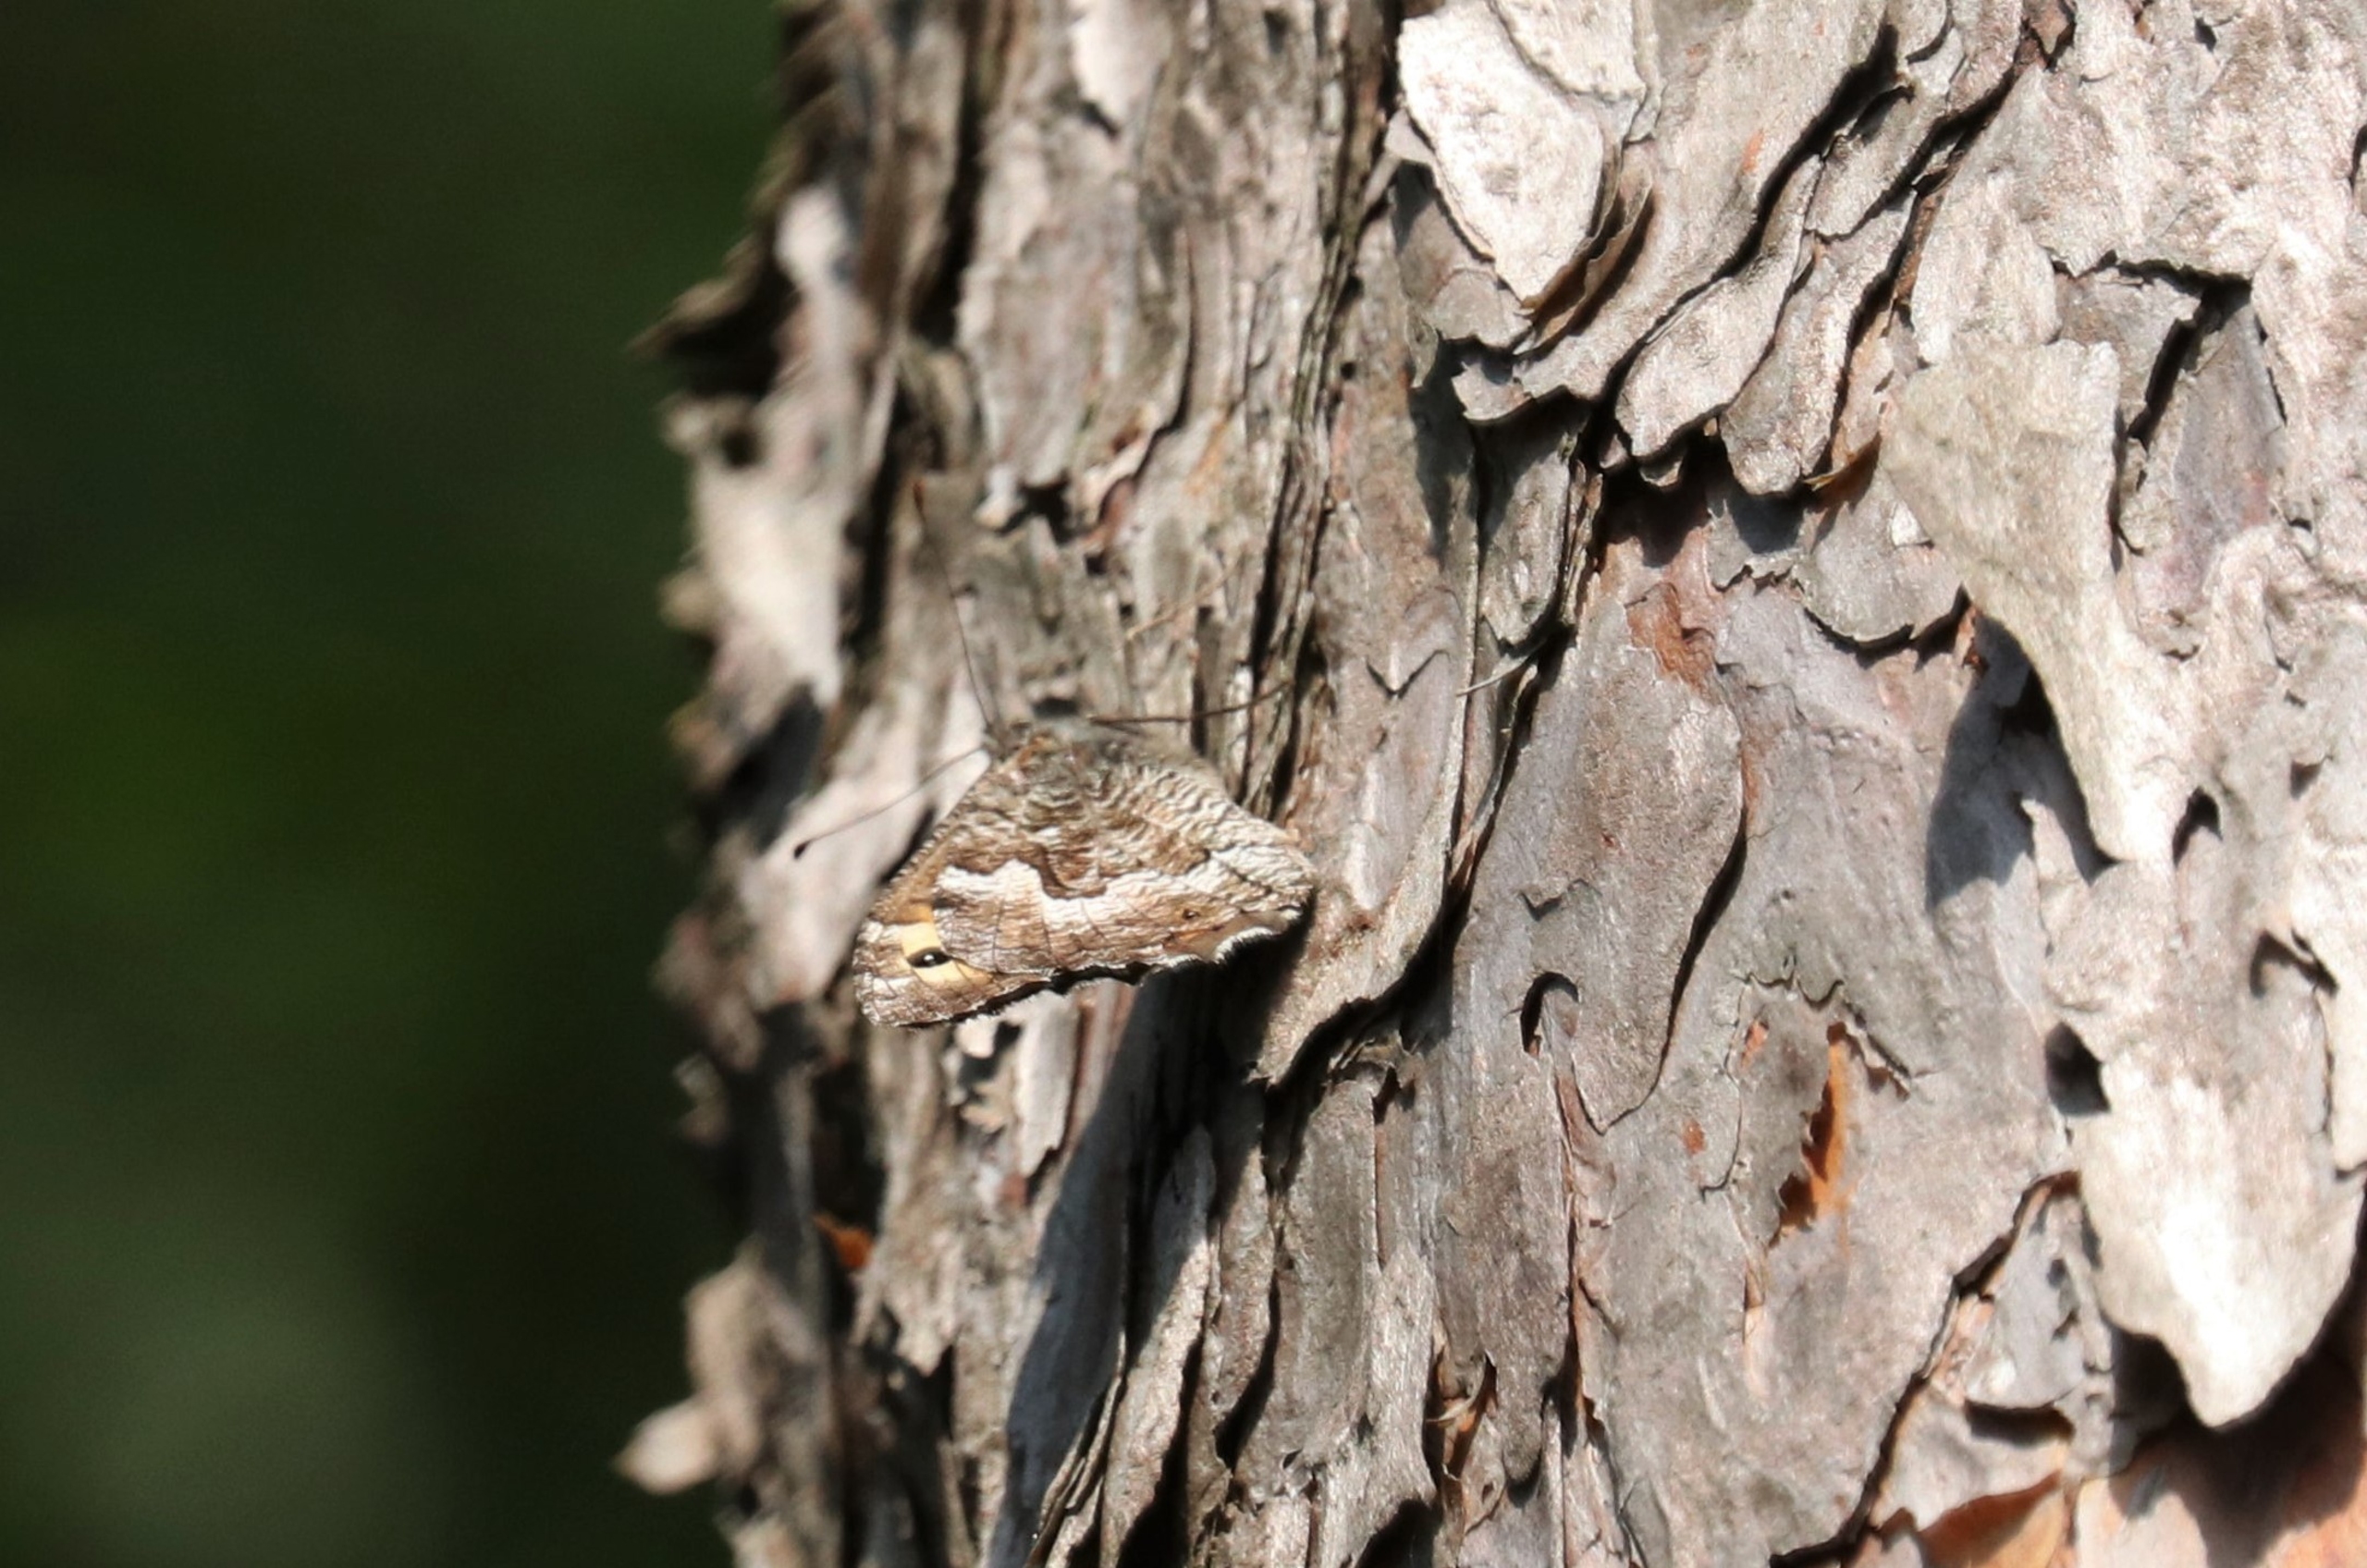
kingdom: Animalia
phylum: Arthropoda
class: Insecta
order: Lepidoptera
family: Nymphalidae
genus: Hipparchia
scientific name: Hipparchia semele
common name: Sandrandøje
